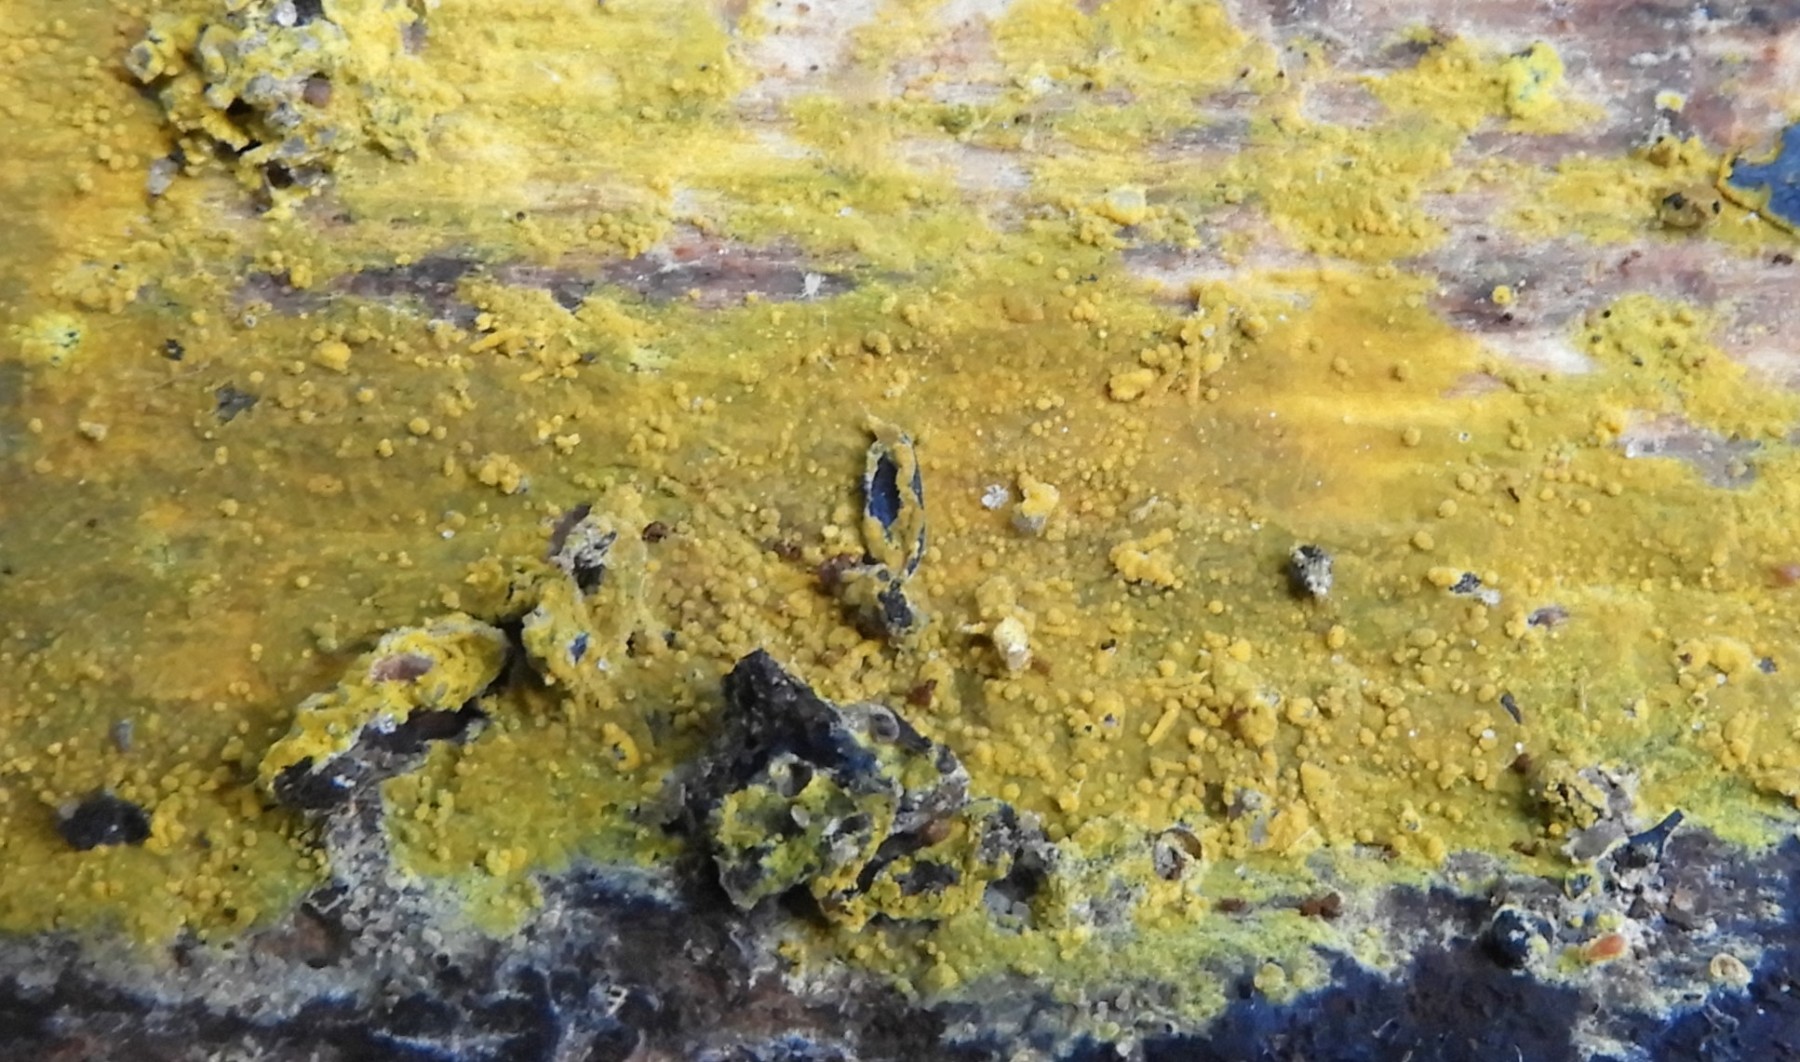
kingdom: Fungi
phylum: Basidiomycota
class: Agaricomycetes
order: Polyporales
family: Meruliaceae
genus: Phlebiodontia
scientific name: Phlebiodontia subochracea
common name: svovl-åresvamp
